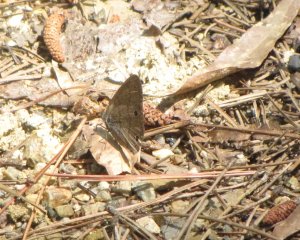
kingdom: Animalia
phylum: Arthropoda
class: Insecta
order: Lepidoptera
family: Nymphalidae
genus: Hermeuptychia
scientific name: Hermeuptychia hermes
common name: Carolina Satyr
